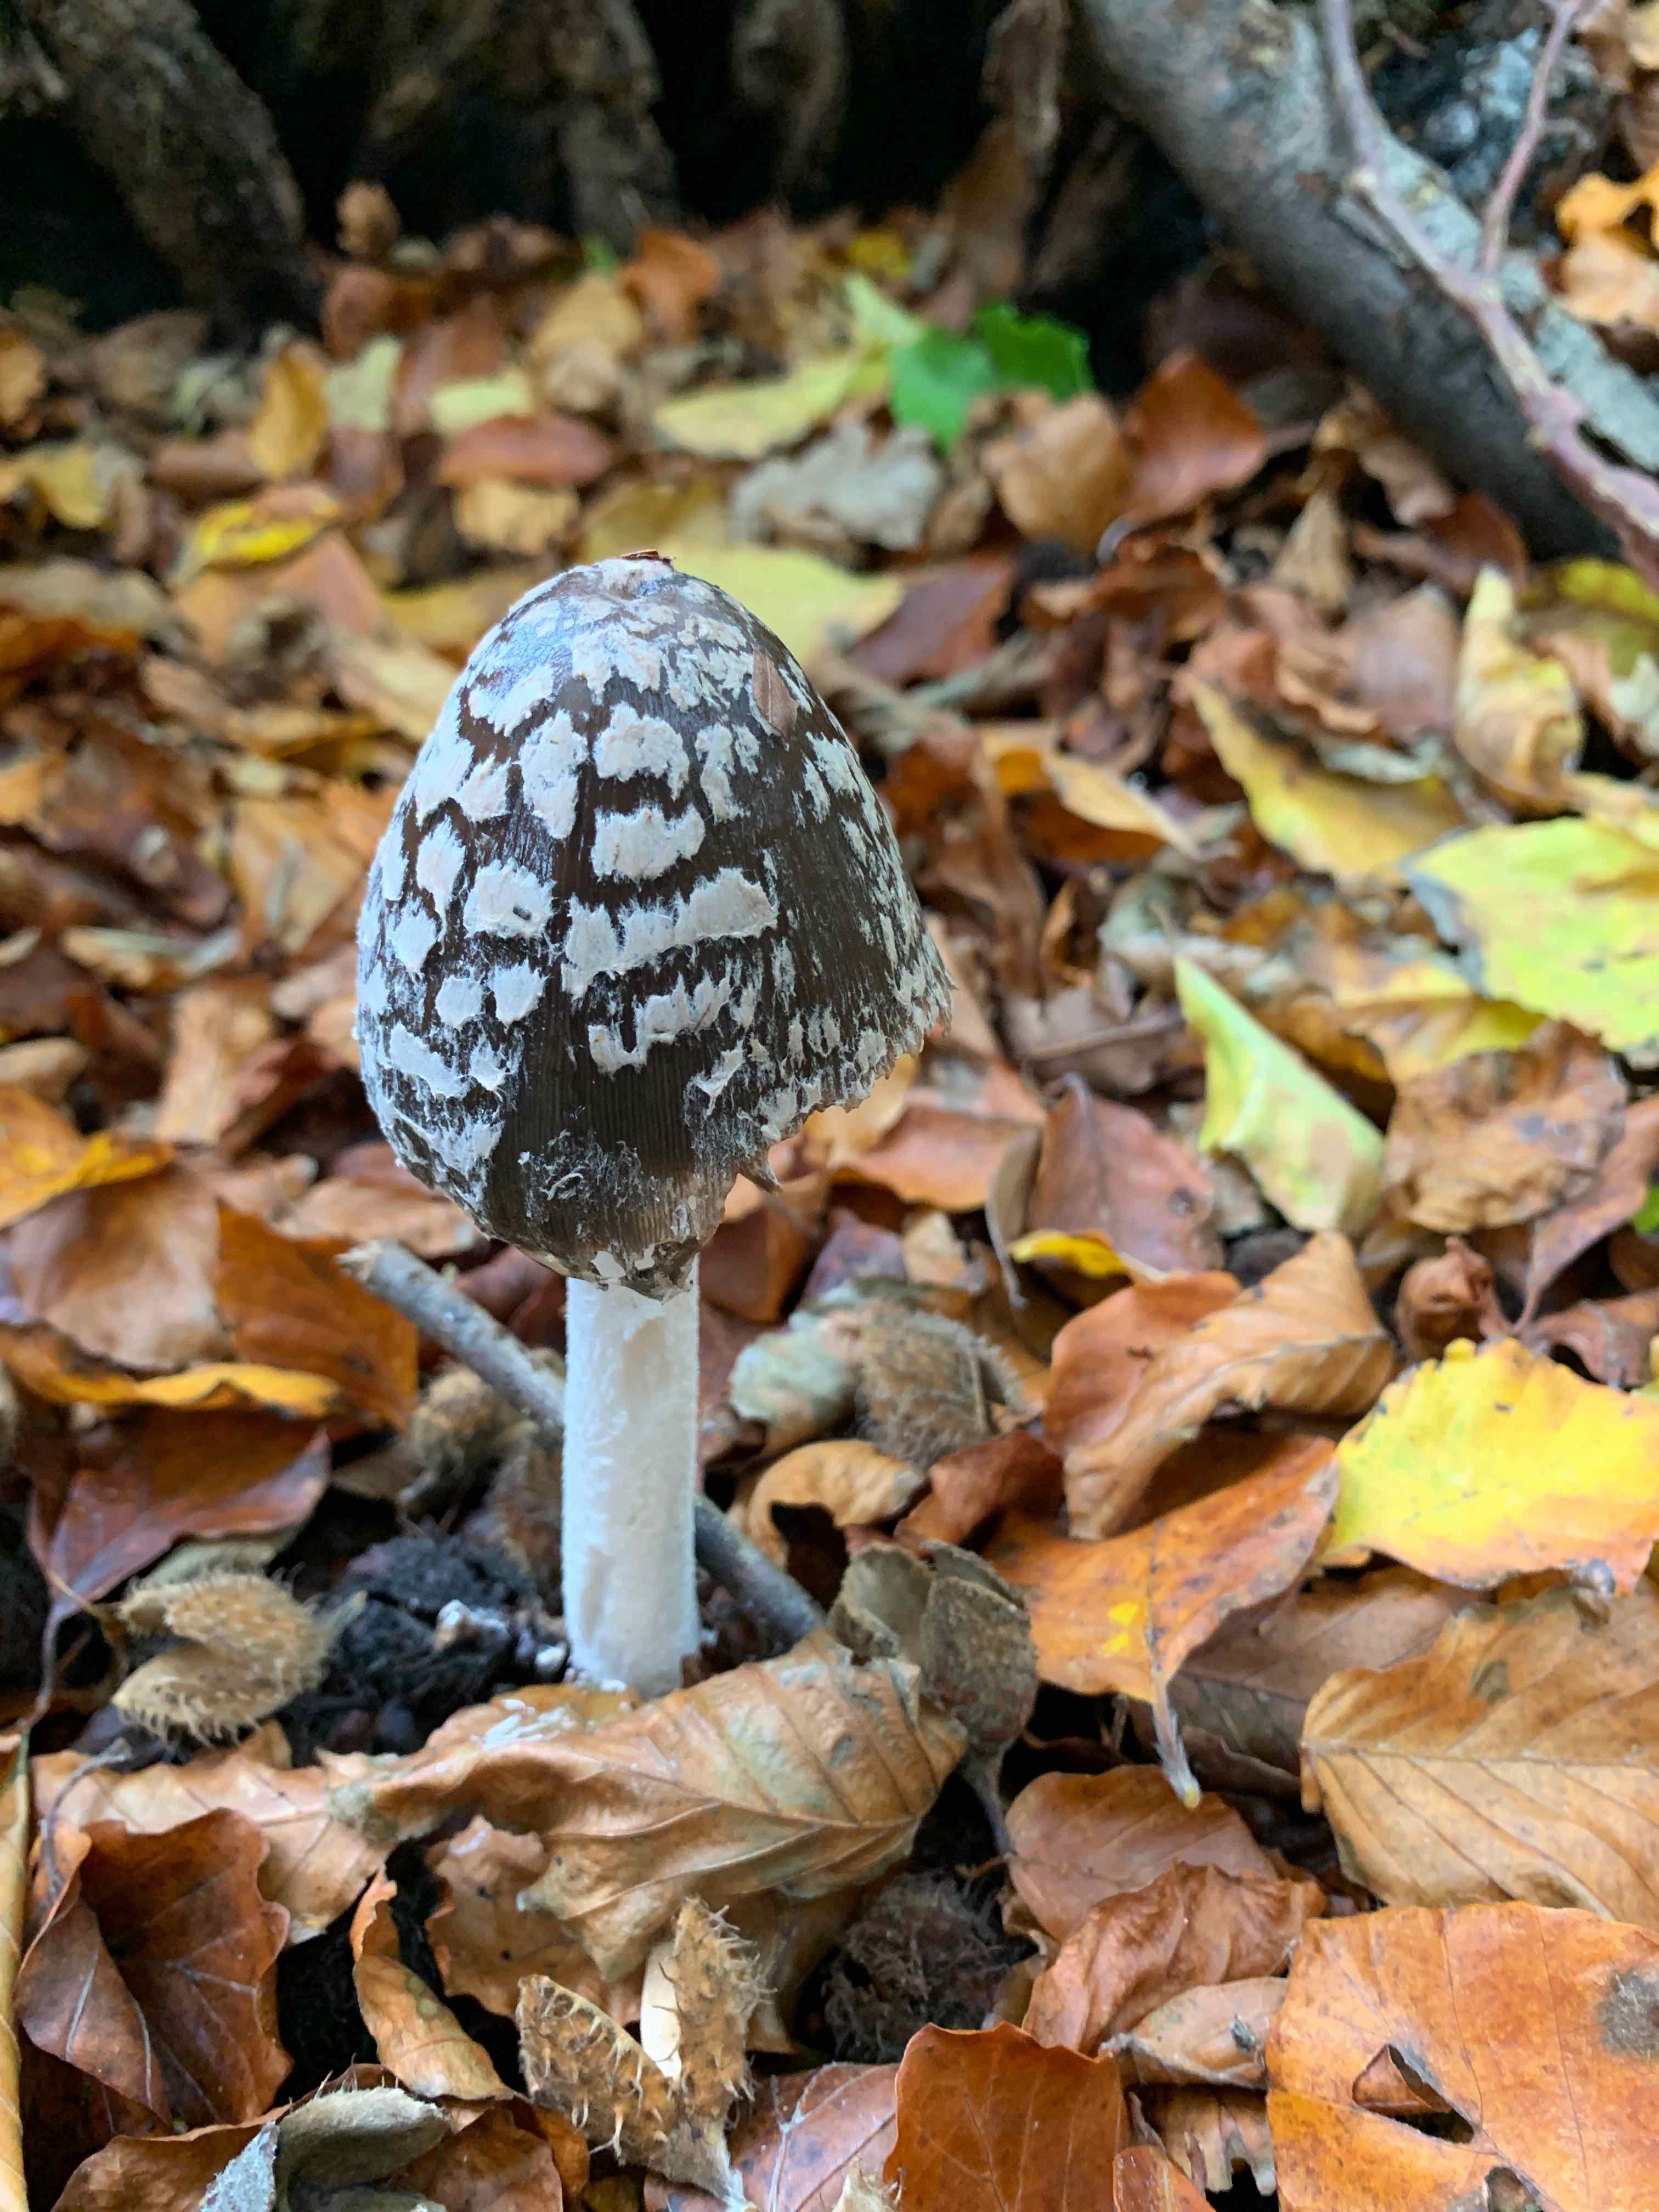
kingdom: Fungi
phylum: Basidiomycota
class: Agaricomycetes
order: Agaricales
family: Psathyrellaceae
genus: Coprinopsis
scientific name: Coprinopsis picacea
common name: skade-blækhat
